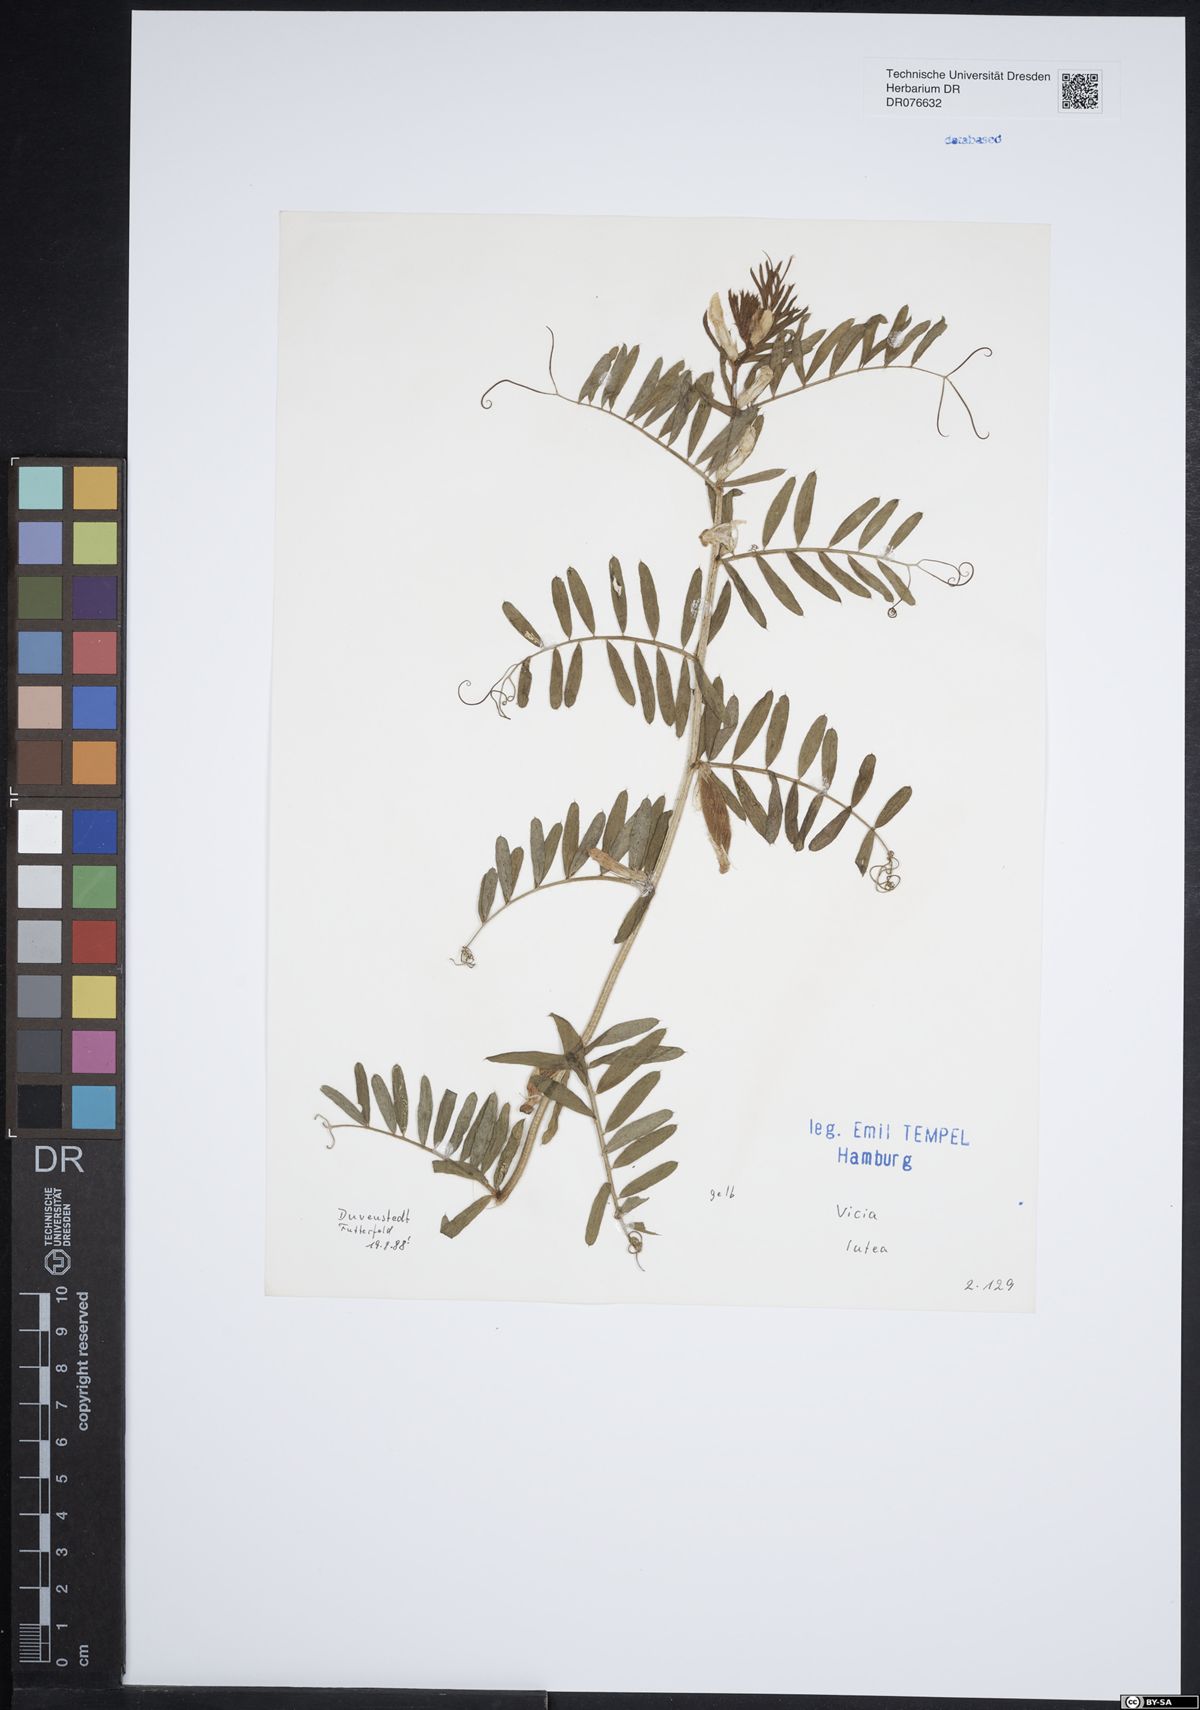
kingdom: Plantae
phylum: Tracheophyta
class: Magnoliopsida
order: Fabales
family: Fabaceae
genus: Vicia
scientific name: Vicia lutea
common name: Smooth yellow vetch
